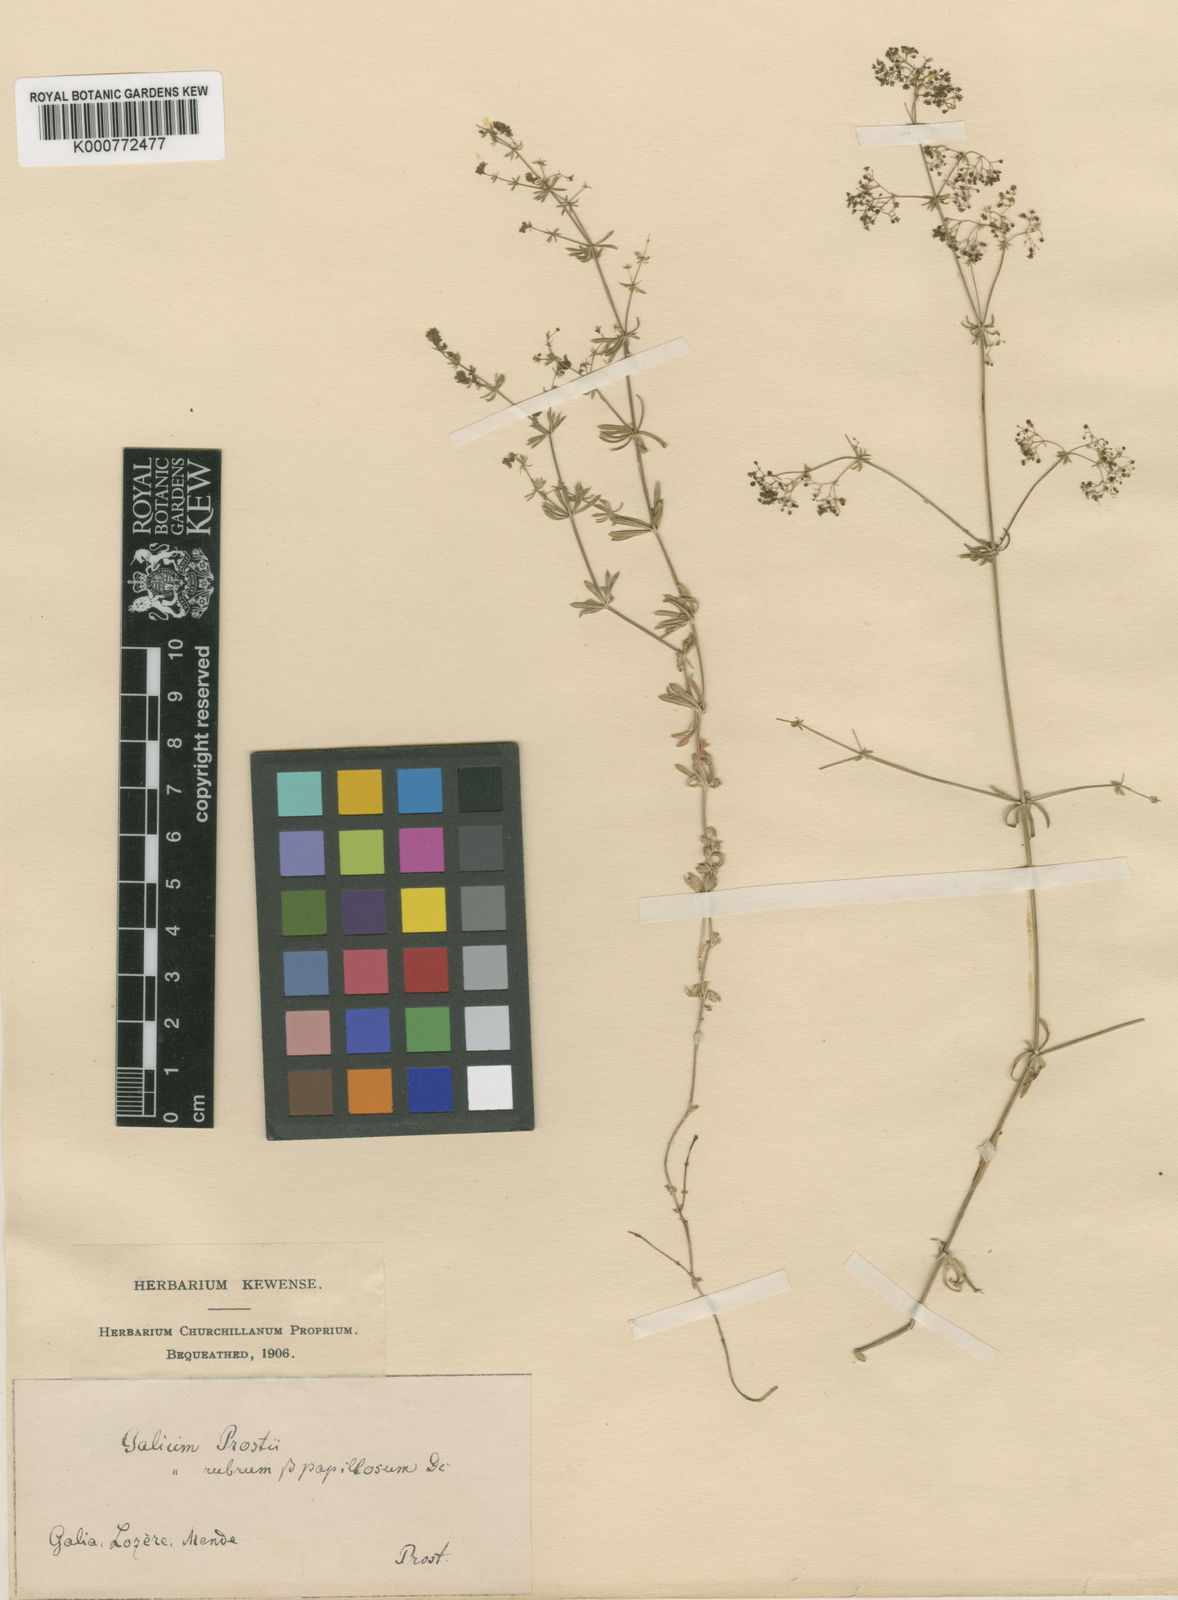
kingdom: Plantae
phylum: Tracheophyta
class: Magnoliopsida
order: Gentianales
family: Rubiaceae
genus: Galium
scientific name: Galium obliquum
